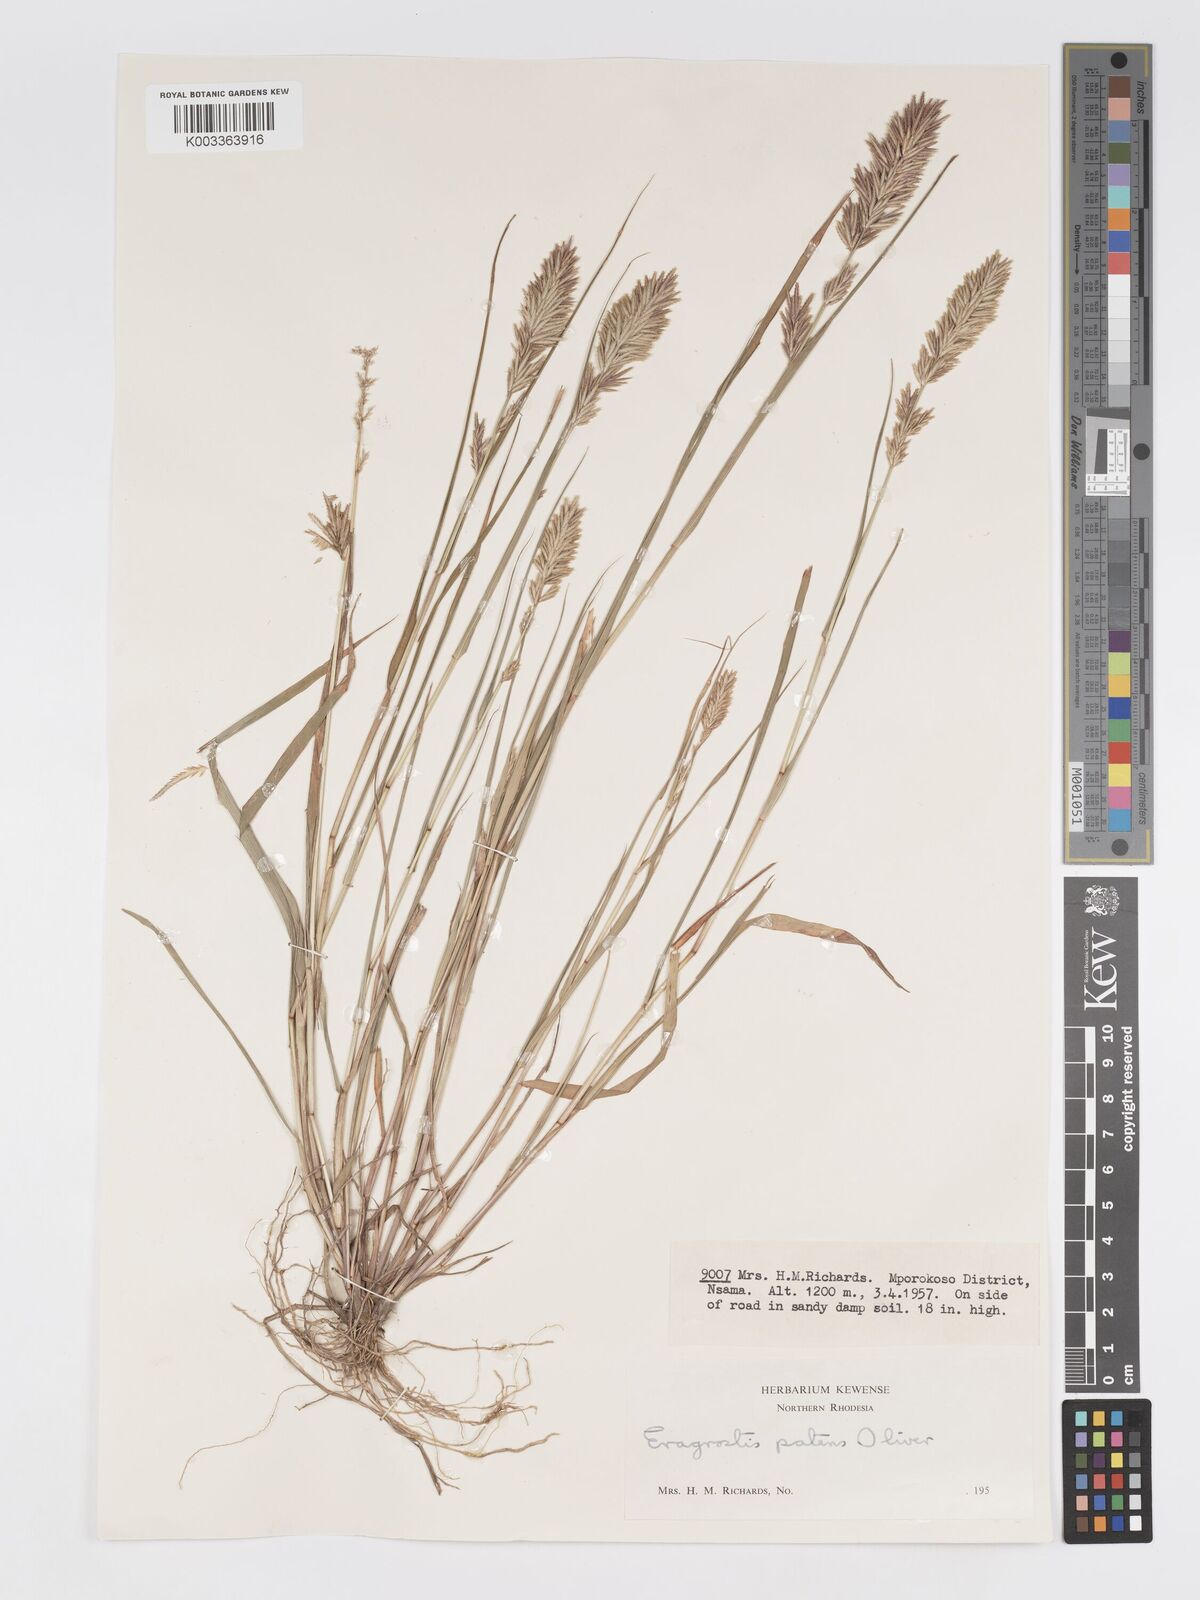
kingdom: Plantae
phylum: Tracheophyta
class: Liliopsida
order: Poales
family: Poaceae
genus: Eragrostis
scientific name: Eragrostis patens
